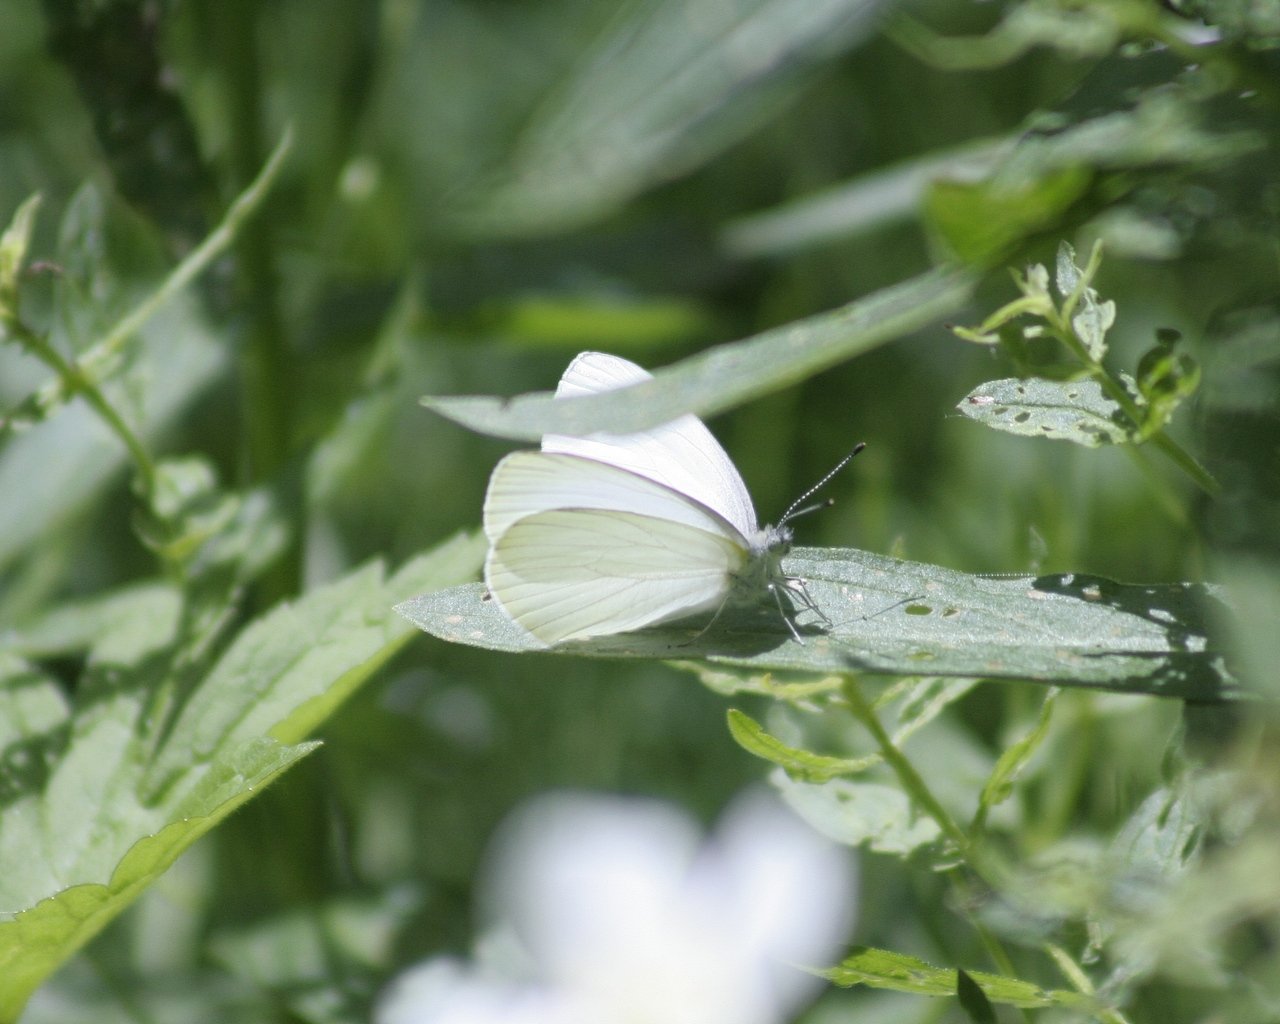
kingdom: Animalia
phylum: Arthropoda
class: Insecta
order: Lepidoptera
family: Pieridae
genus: Pieris
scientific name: Pieris oleracea
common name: Mustard White
